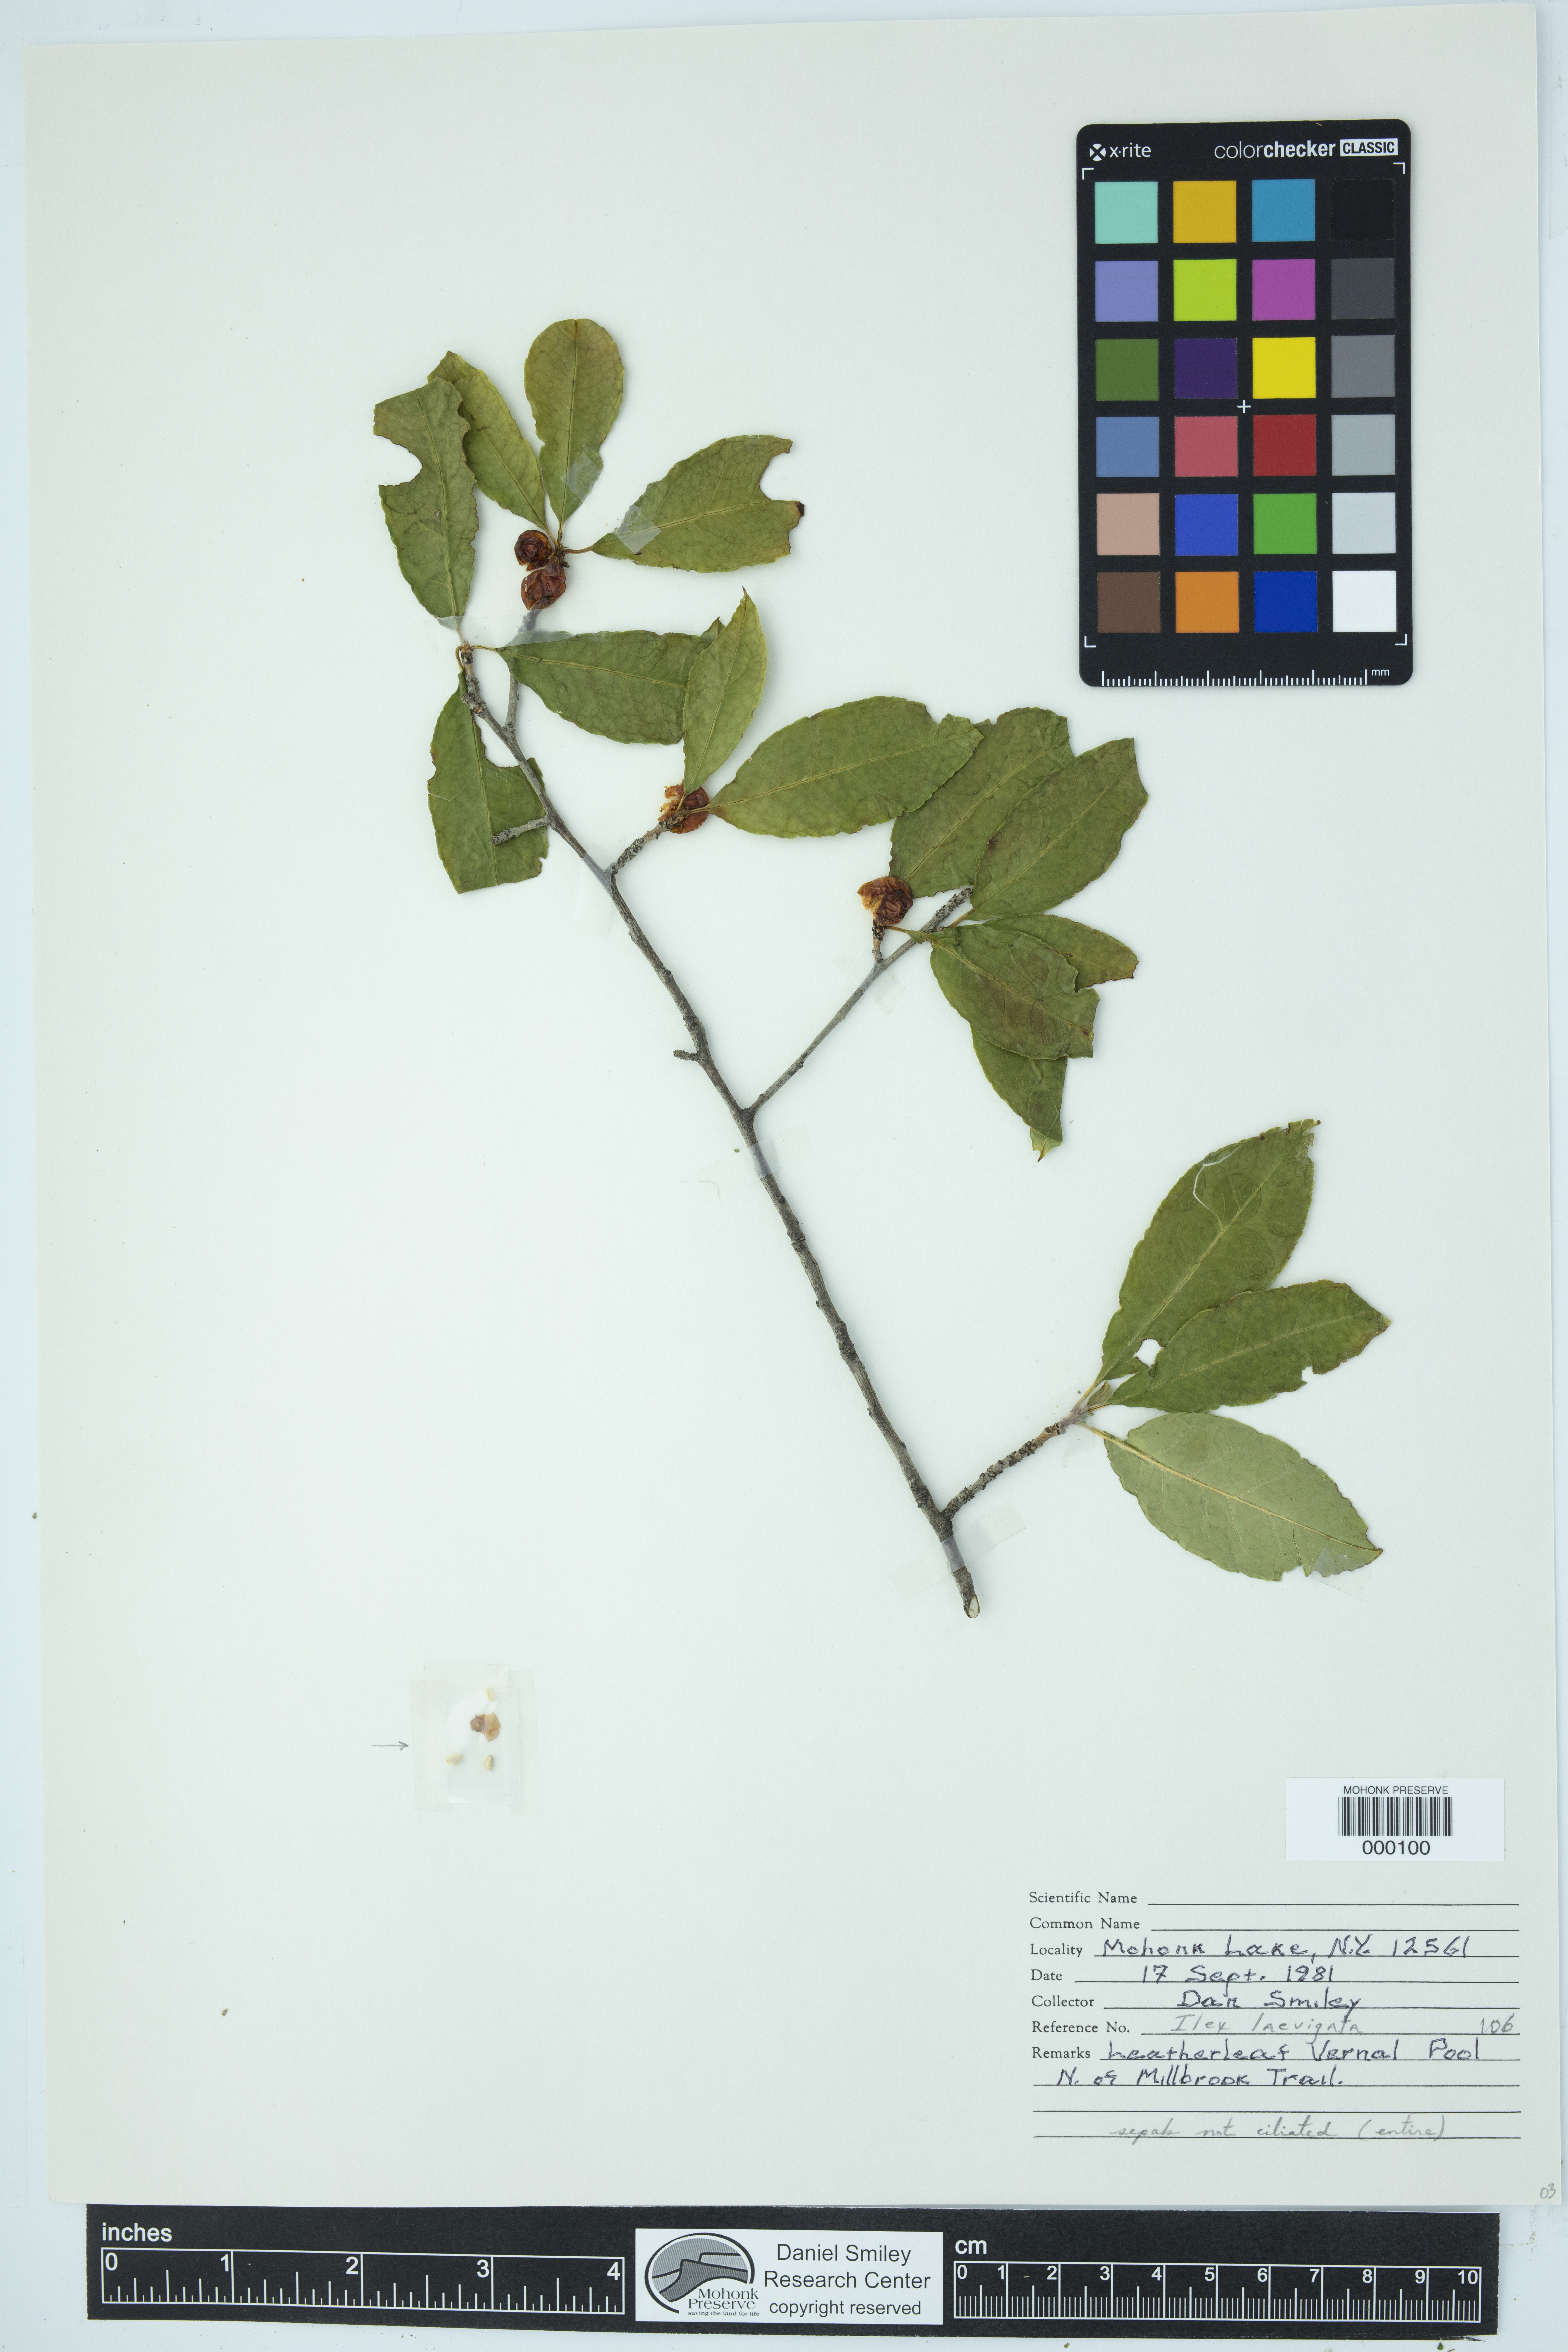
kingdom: Plantae
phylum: Tracheophyta
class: Magnoliopsida
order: Aquifoliales
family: Aquifoliaceae
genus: Ilex
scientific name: Ilex laevigata
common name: Smooth winterberry
